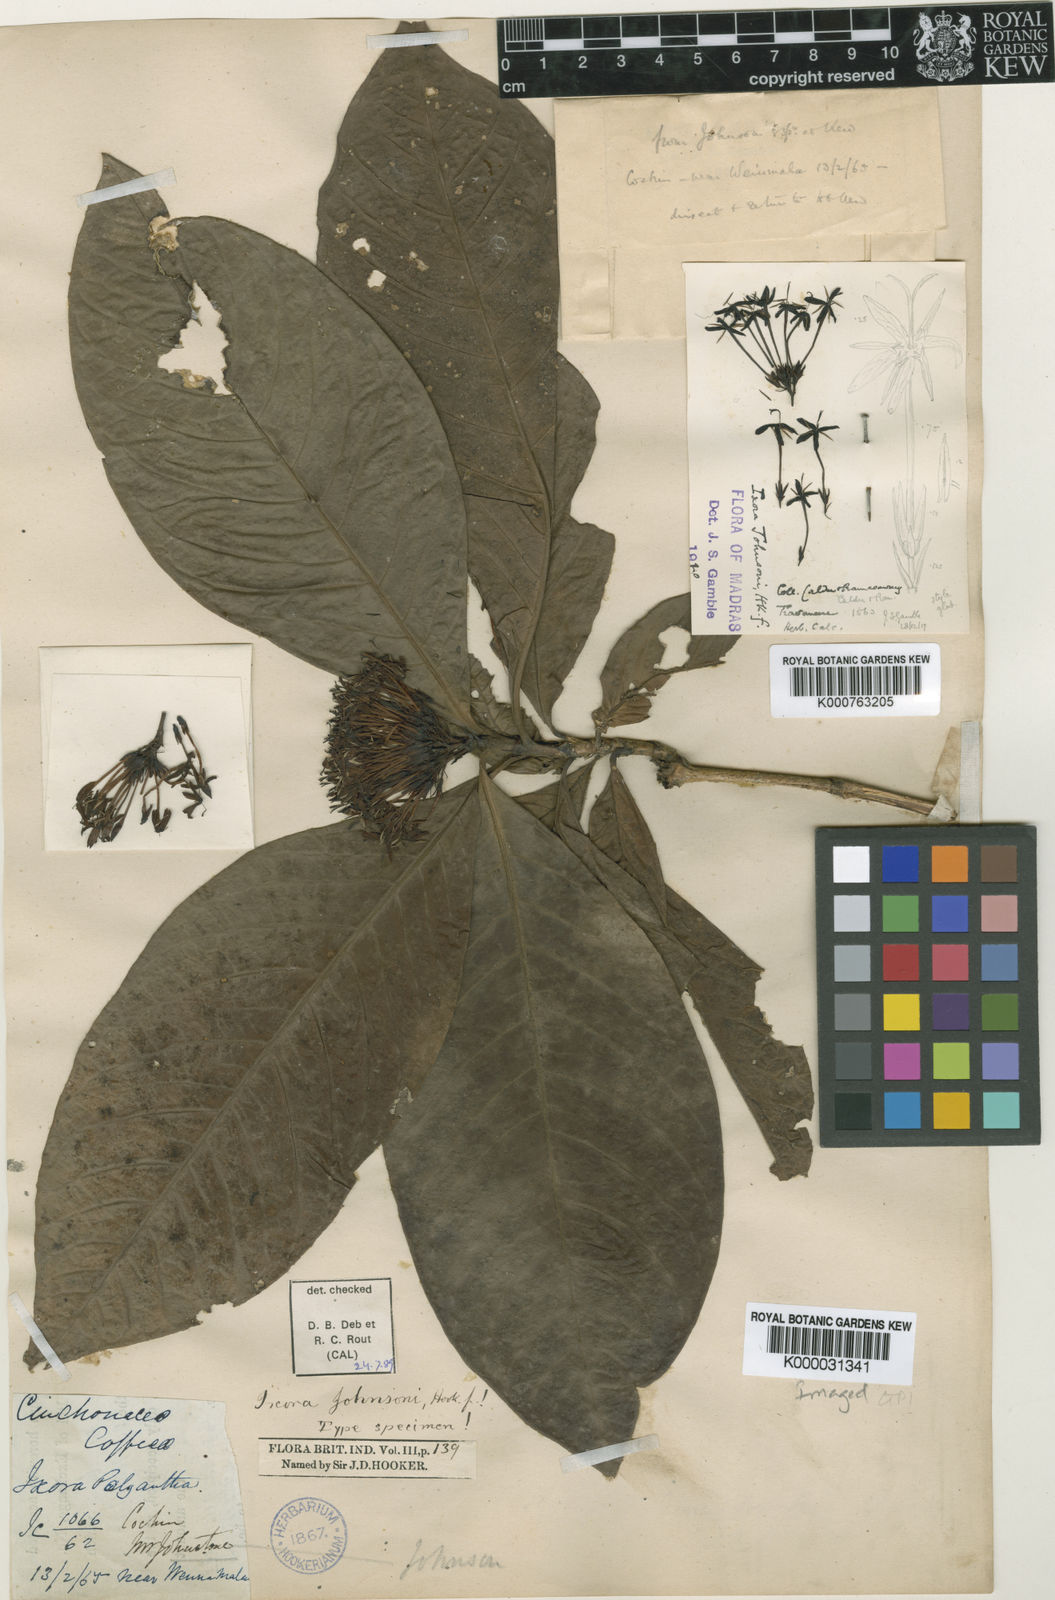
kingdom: Plantae
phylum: Tracheophyta
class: Magnoliopsida
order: Gentianales
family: Rubiaceae
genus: Ixora
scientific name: Ixora johnsonii
